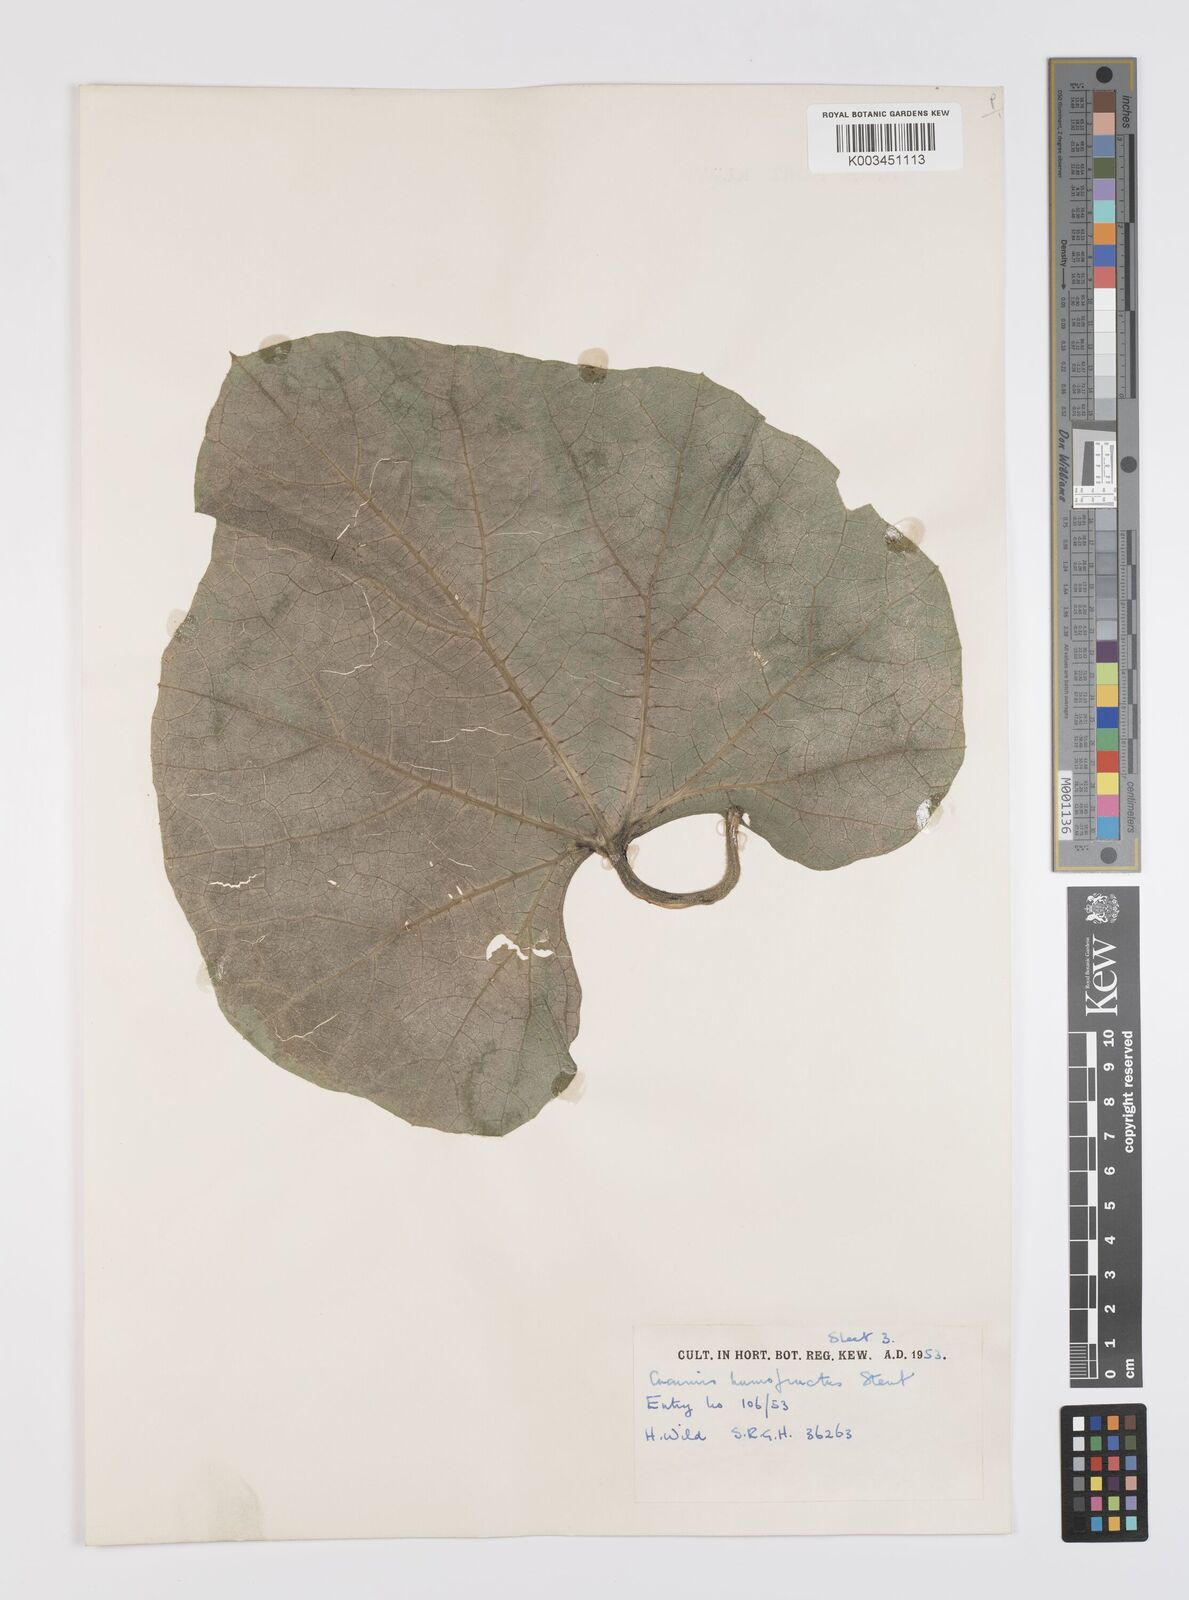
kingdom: Plantae
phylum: Tracheophyta
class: Magnoliopsida
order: Cucurbitales
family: Cucurbitaceae
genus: Lagenaria
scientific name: Lagenaria siceraria
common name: Bottle gourd
